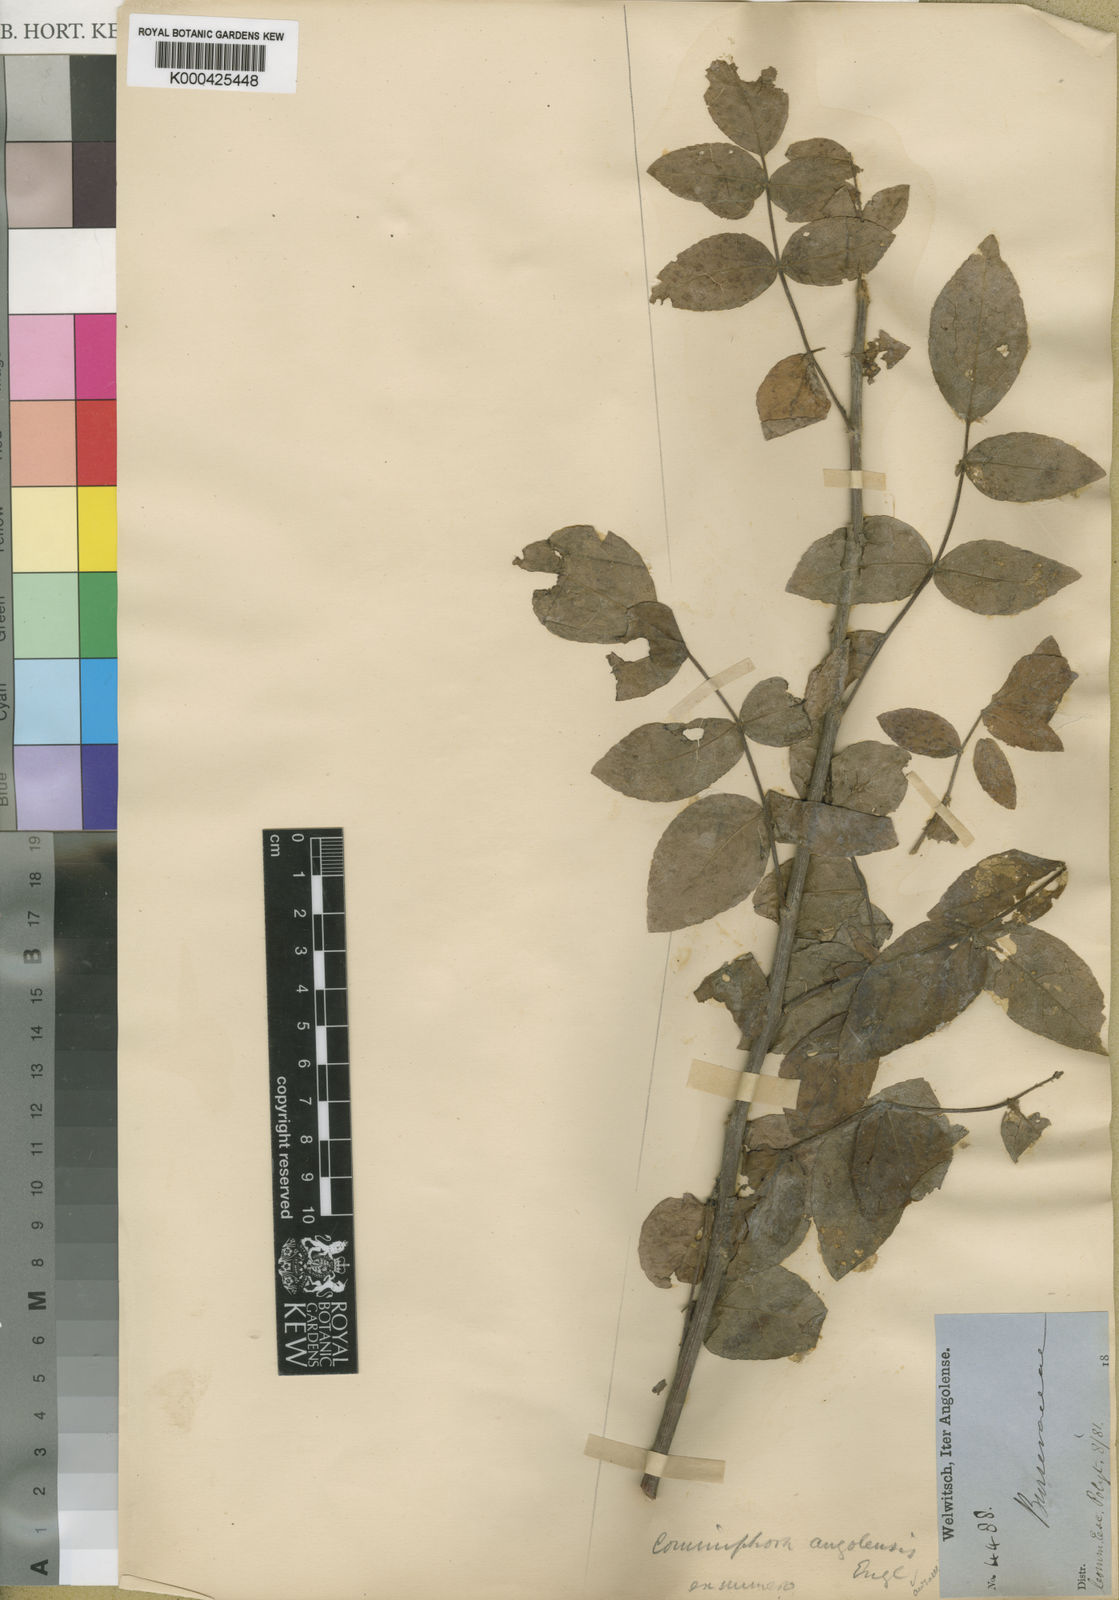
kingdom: Plantae
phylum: Tracheophyta
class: Magnoliopsida
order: Sapindales
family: Burseraceae
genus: Commiphora
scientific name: Commiphora angolensis
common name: Poison-grub
